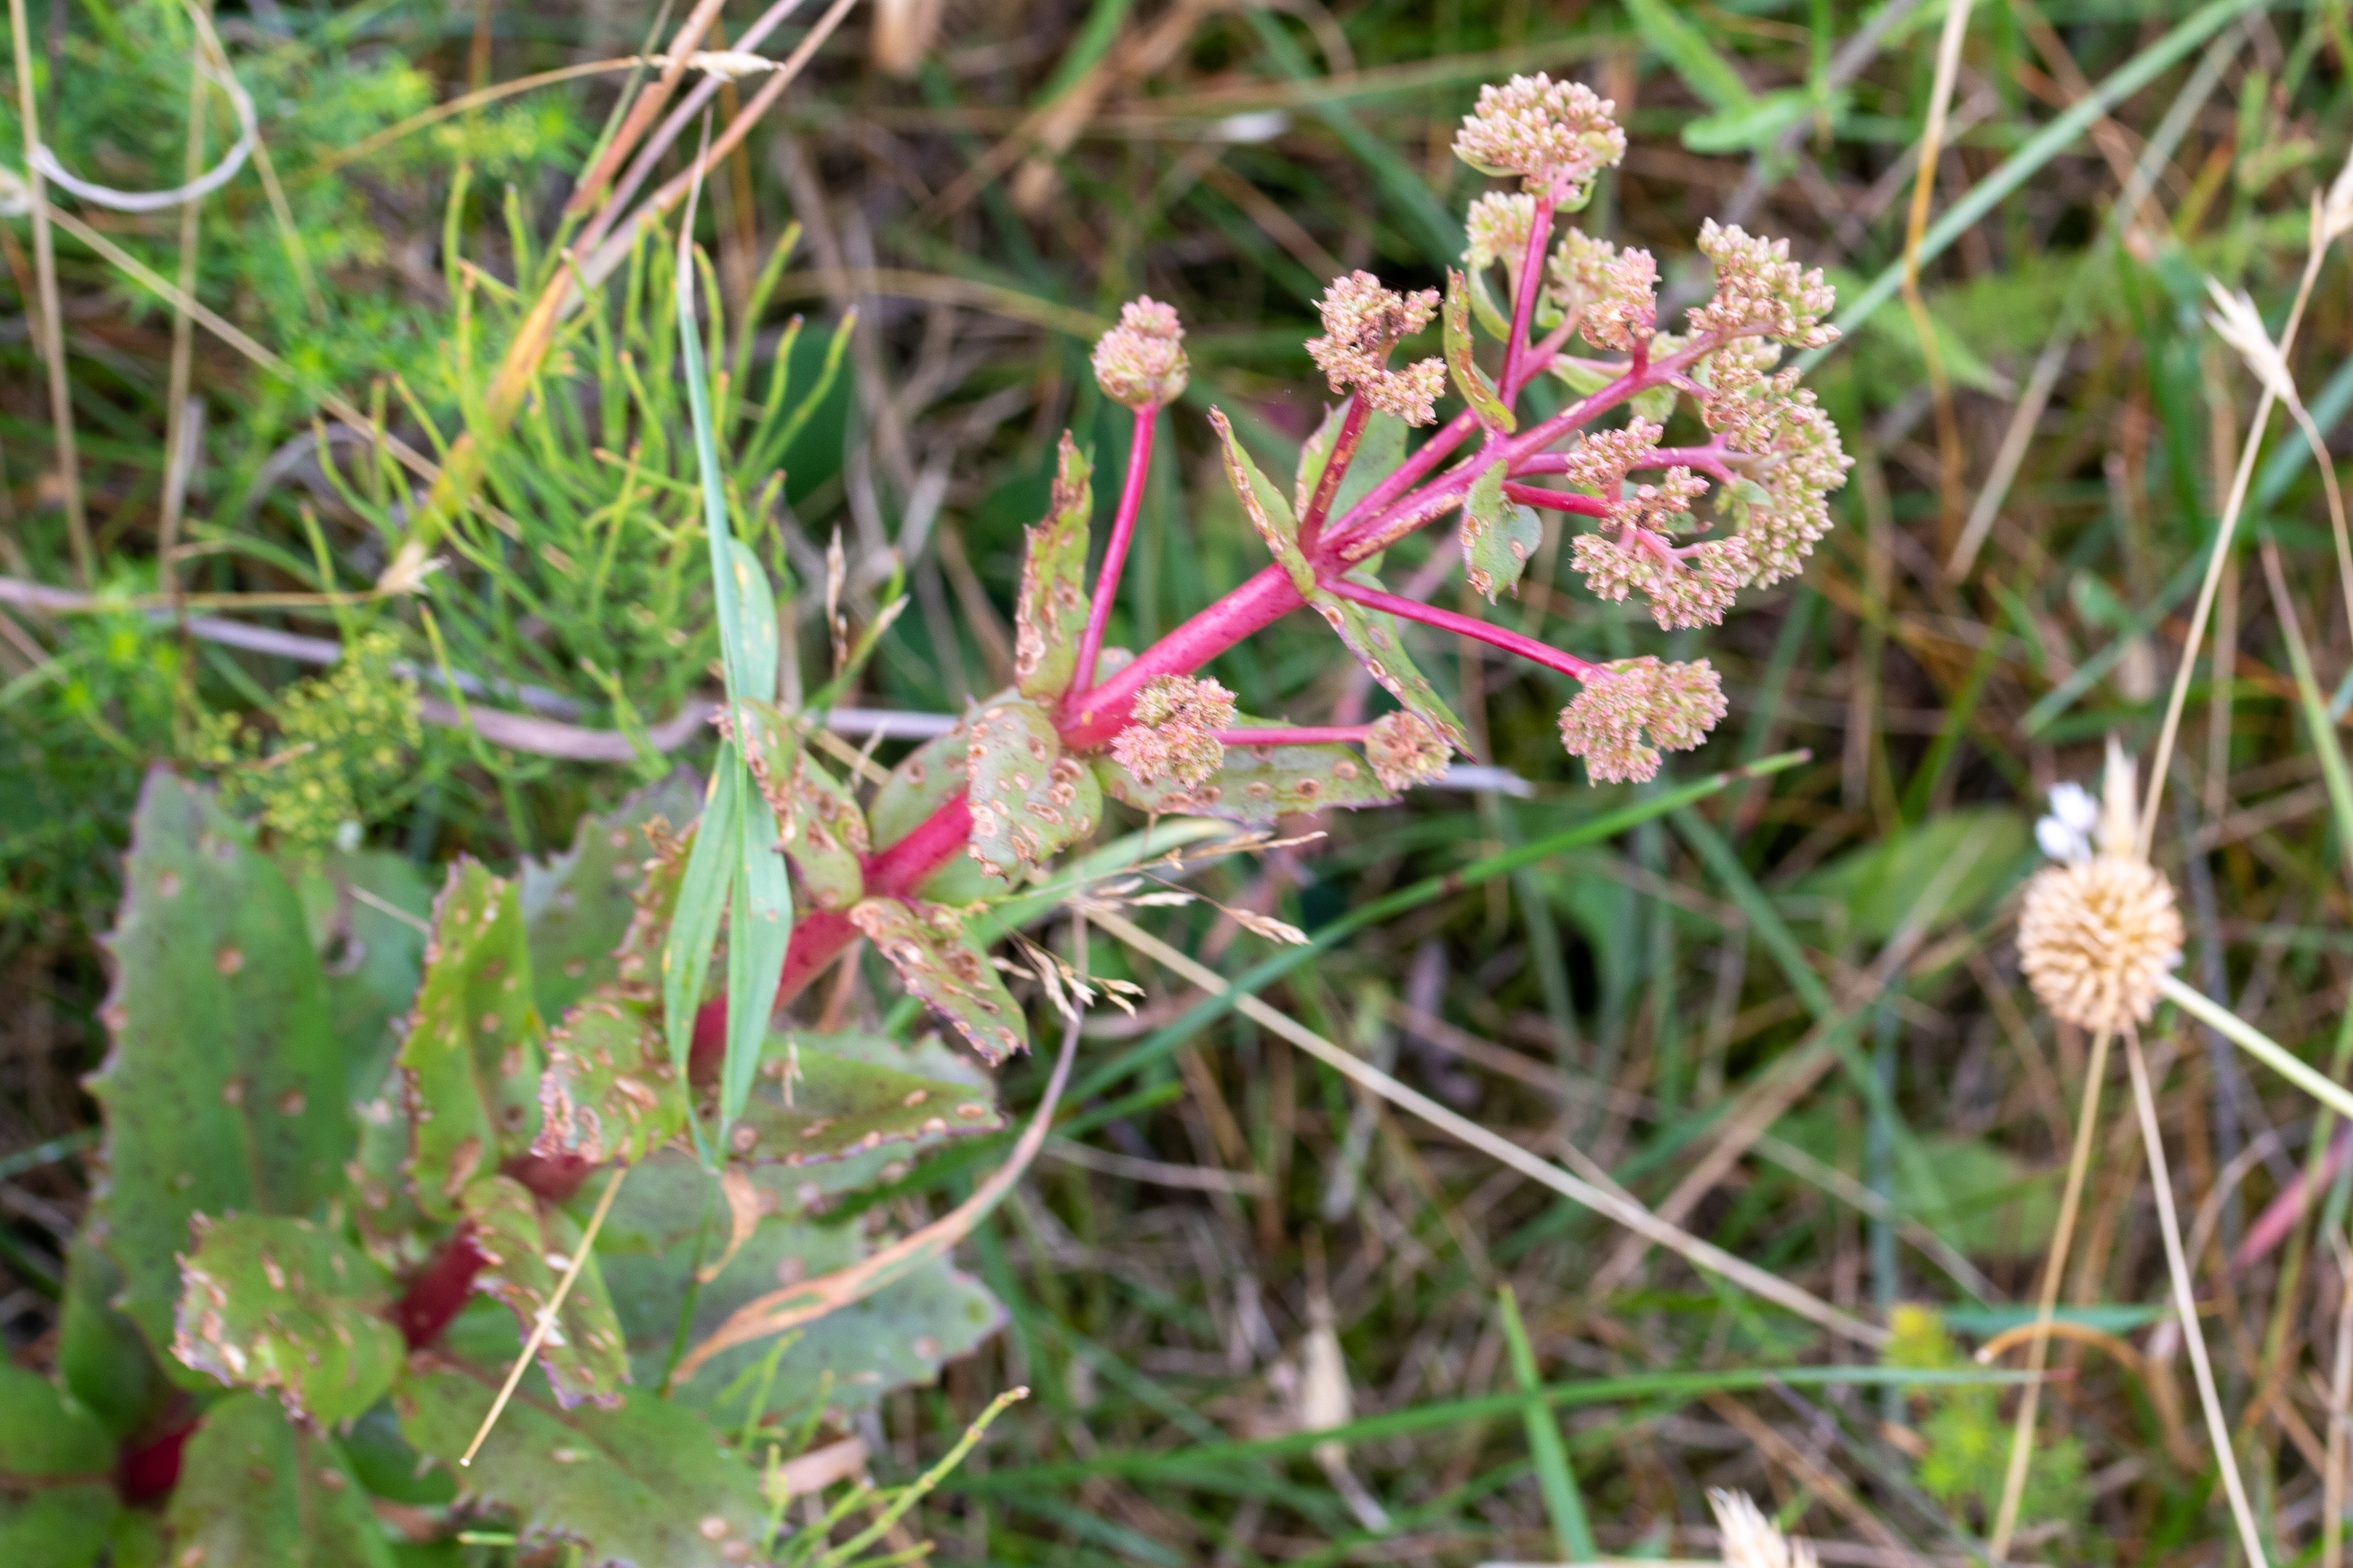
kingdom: Plantae
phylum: Tracheophyta
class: Magnoliopsida
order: Saxifragales
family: Crassulaceae
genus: Hylotelephium
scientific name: Hylotelephium telephium
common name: Sankthansurt
